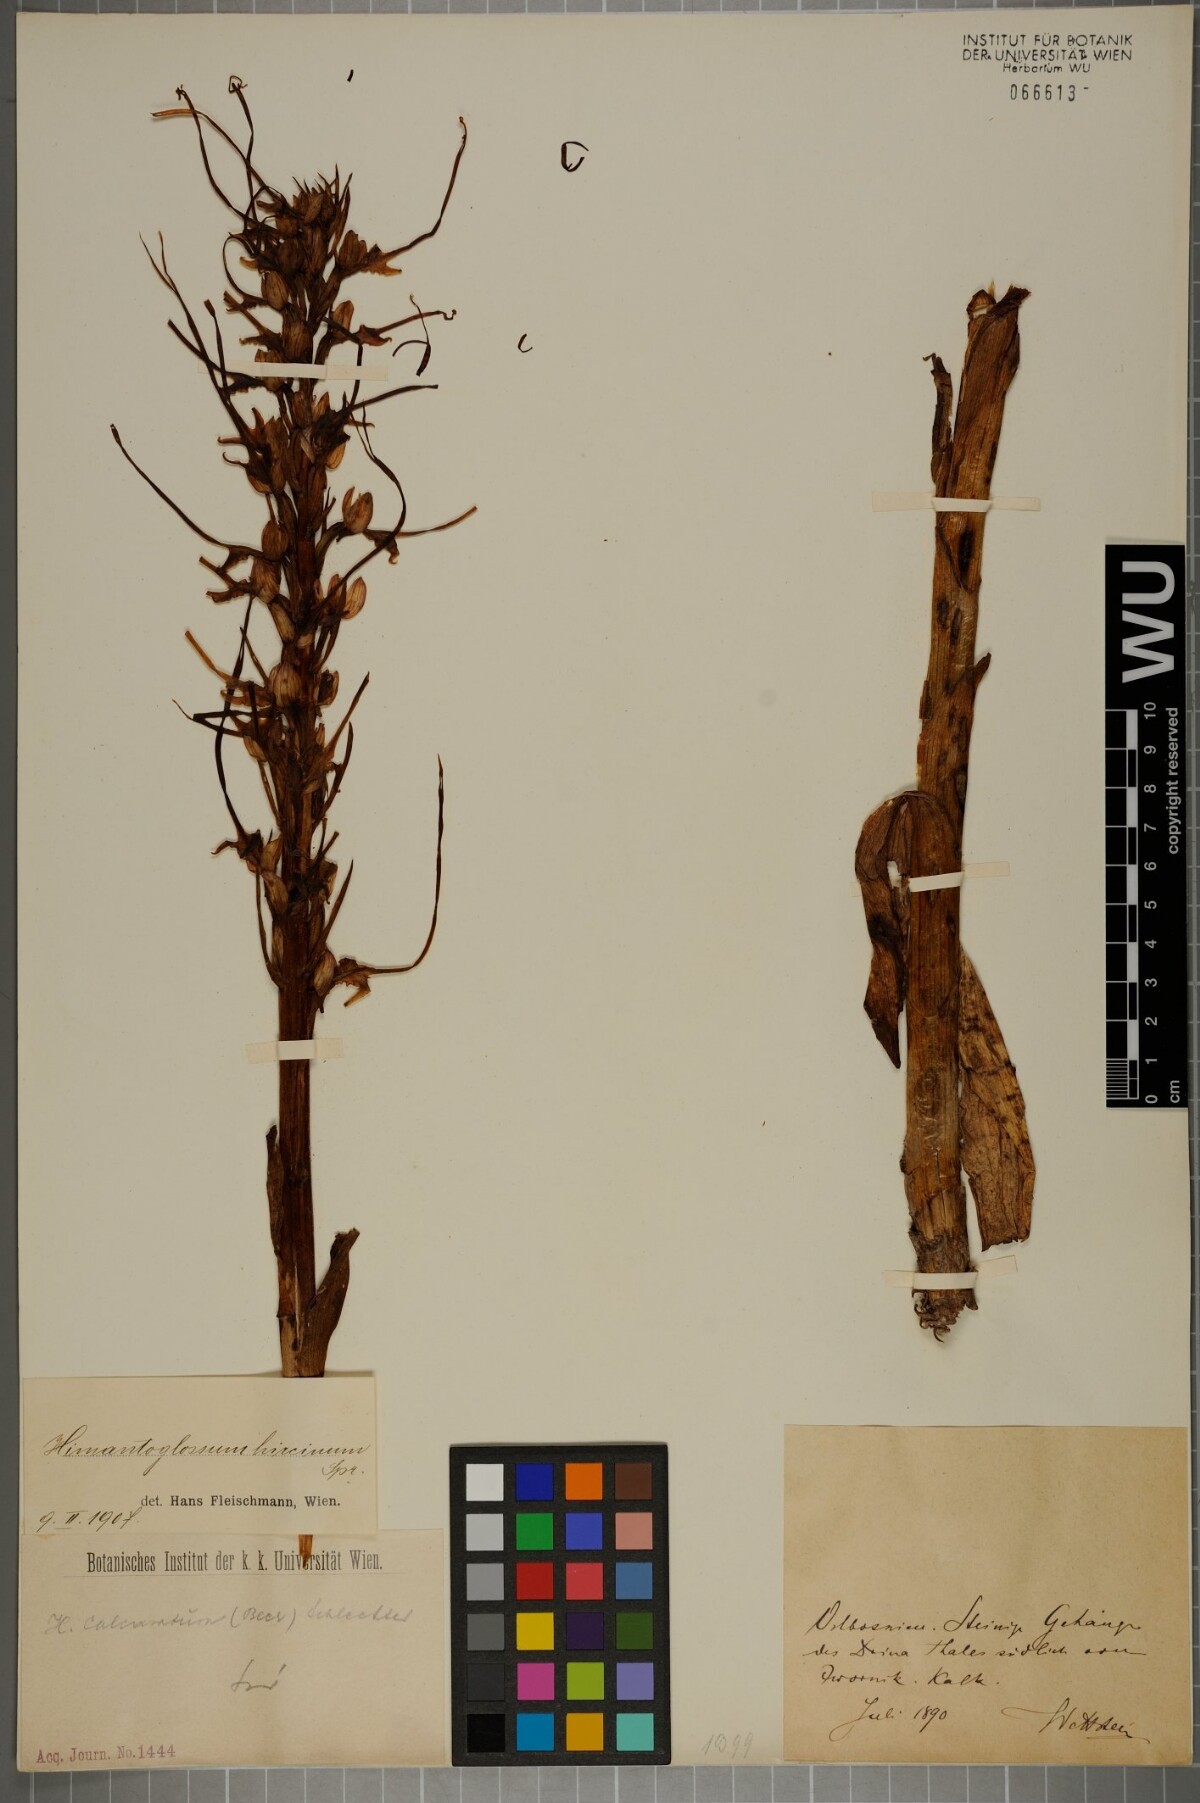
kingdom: Plantae
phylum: Tracheophyta
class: Liliopsida
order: Asparagales
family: Orchidaceae
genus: Himantoglossum
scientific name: Himantoglossum calcaratum
